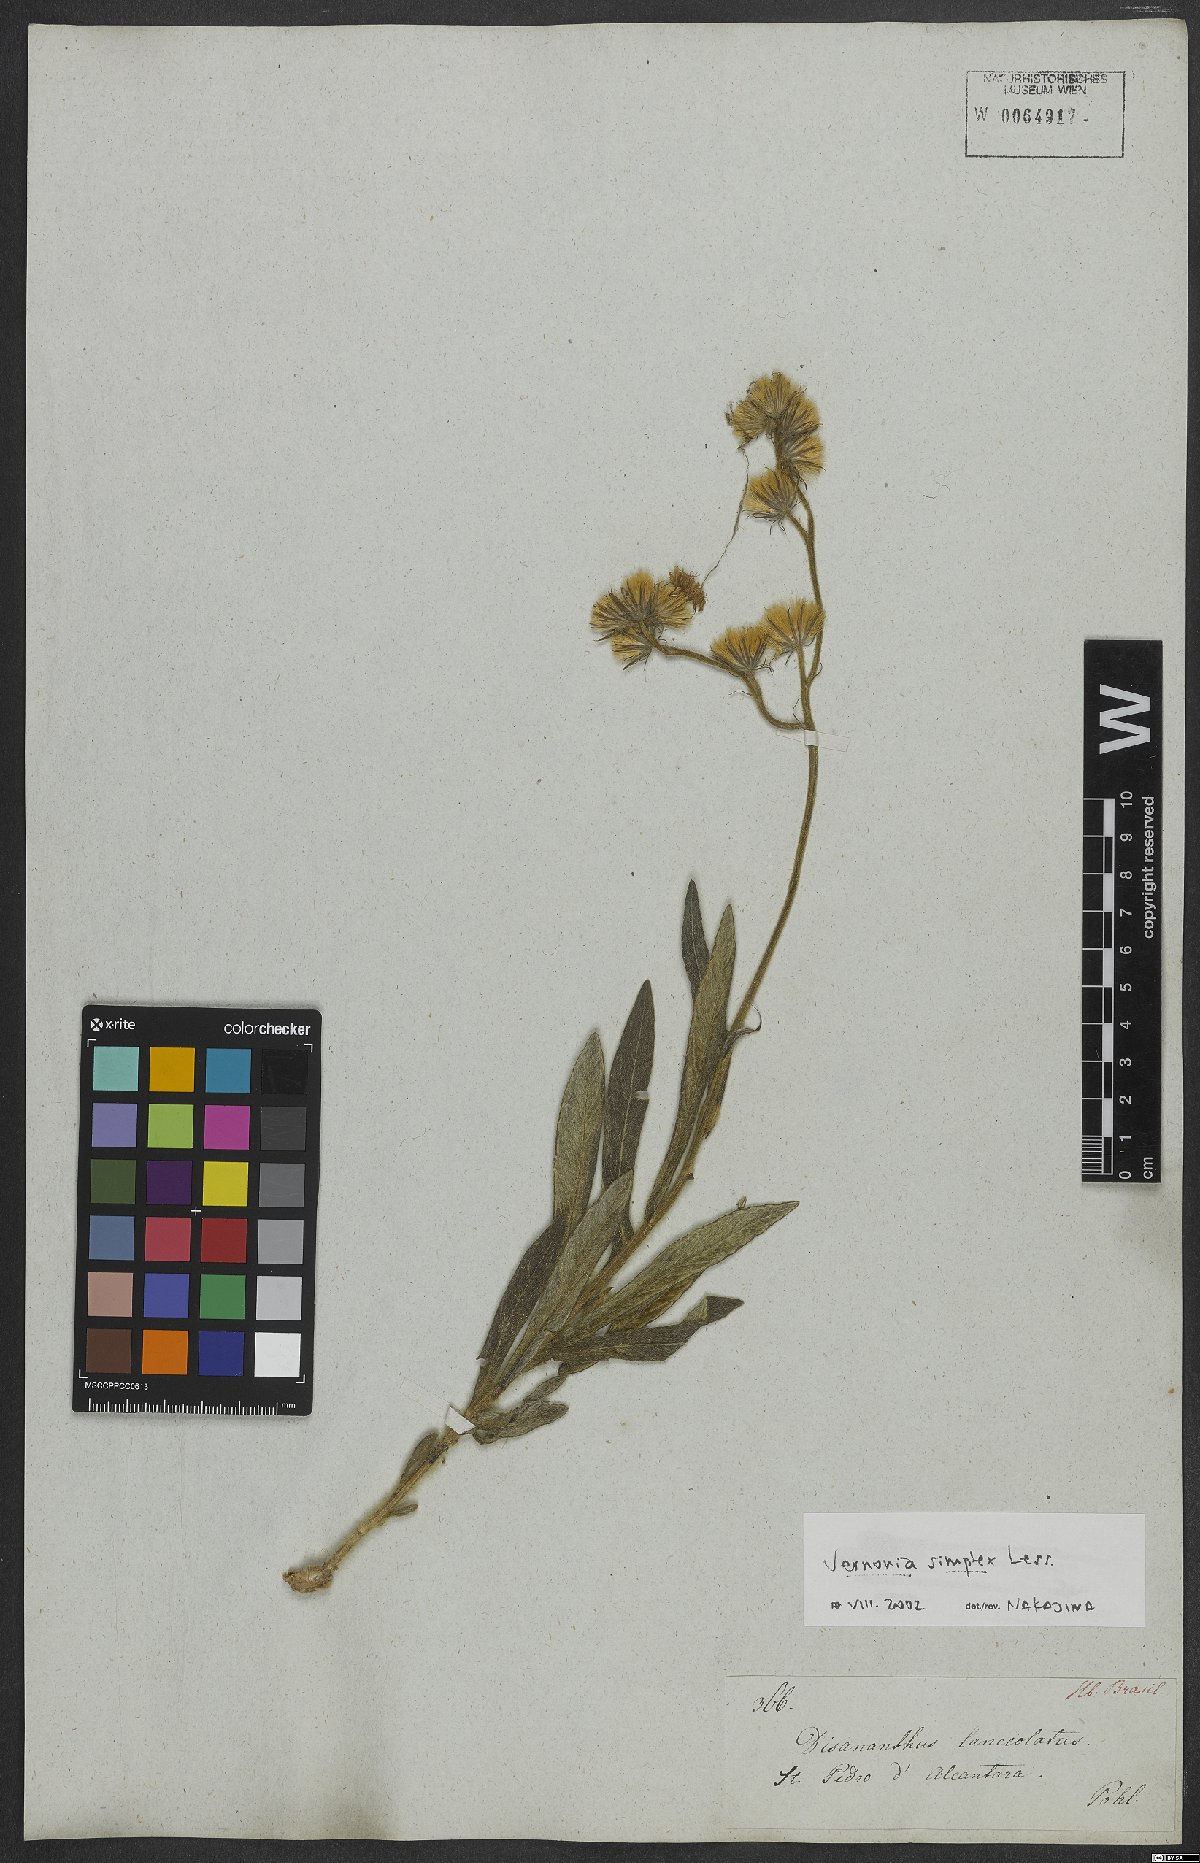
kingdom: Plantae
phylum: Tracheophyta
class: Magnoliopsida
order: Asterales
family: Asteraceae
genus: Chrysolaena
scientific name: Chrysolaena simplex
